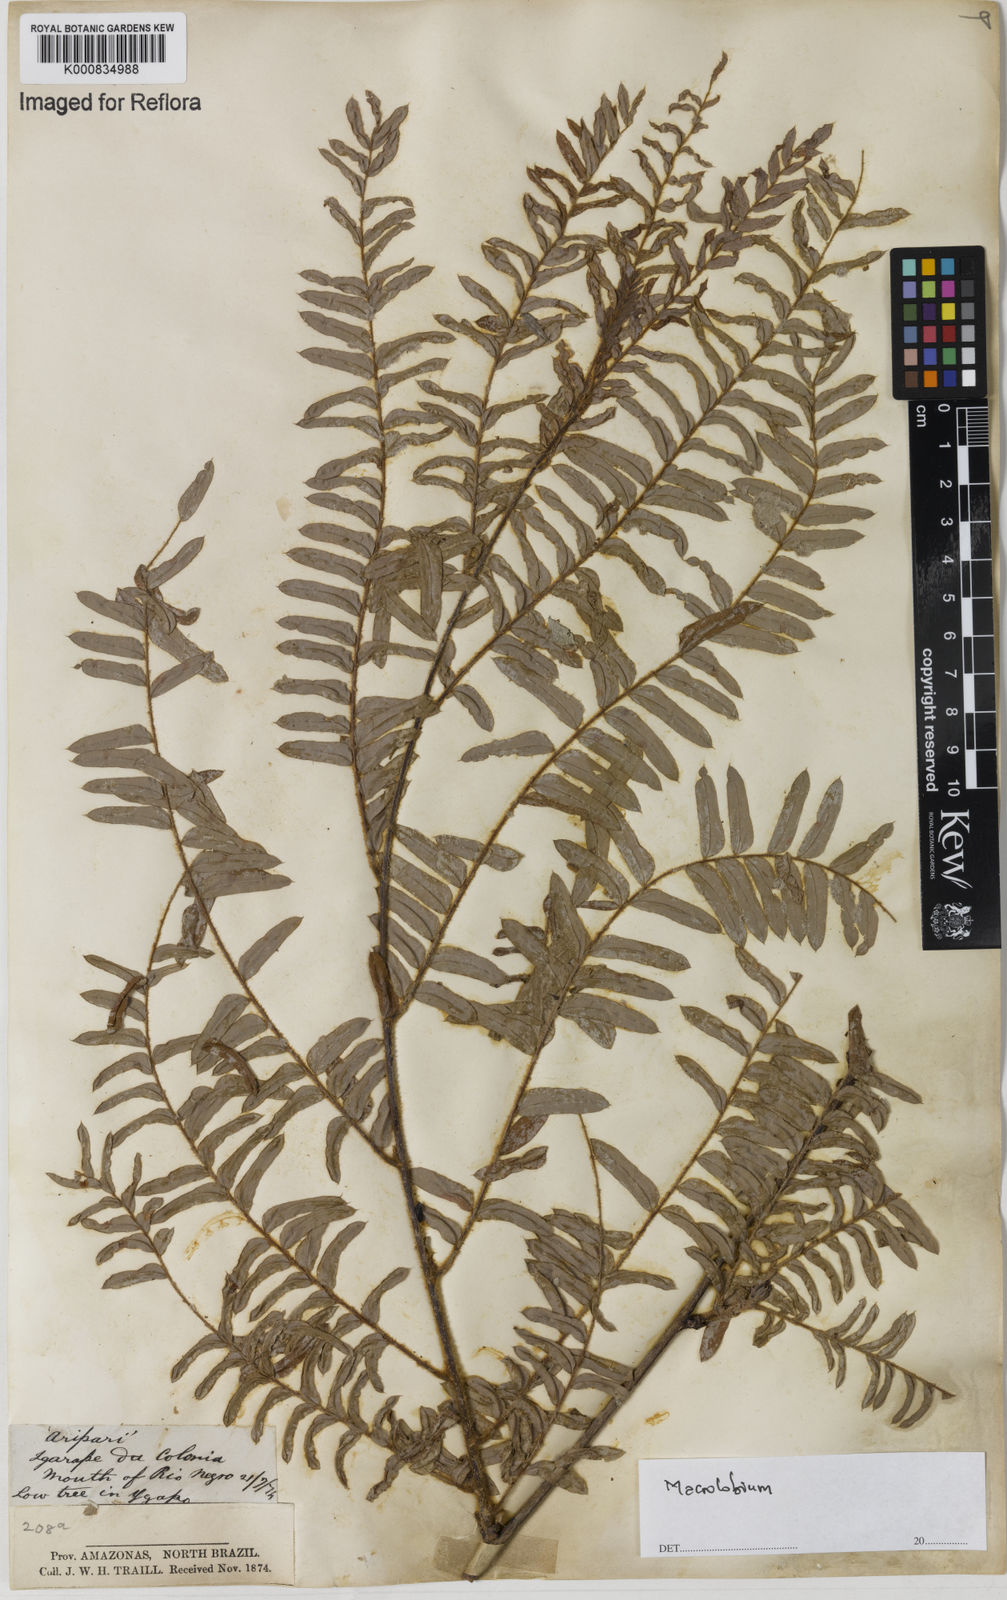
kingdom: Plantae
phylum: Tracheophyta
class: Magnoliopsida
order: Fabales
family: Fabaceae
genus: Macrolobium
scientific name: Macrolobium
